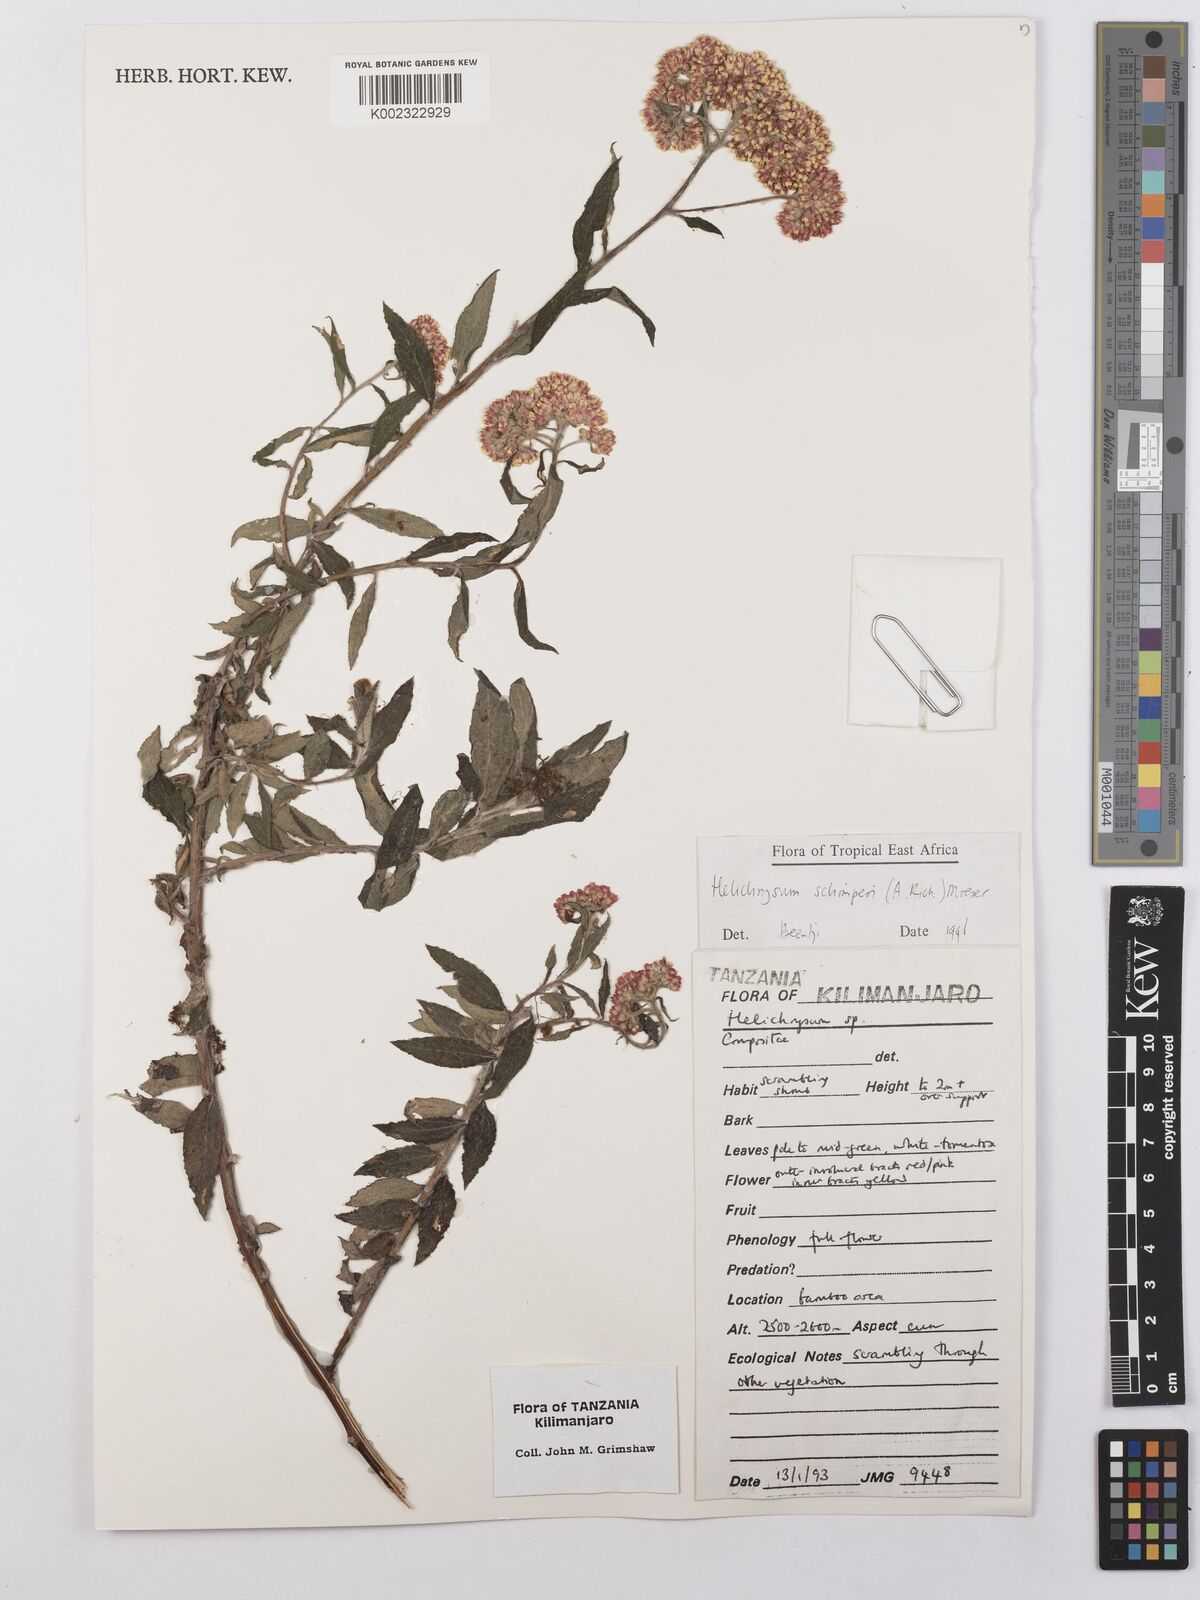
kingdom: Plantae
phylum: Tracheophyta
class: Magnoliopsida
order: Asterales
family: Asteraceae
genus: Helichrysum
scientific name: Helichrysum schimperi
